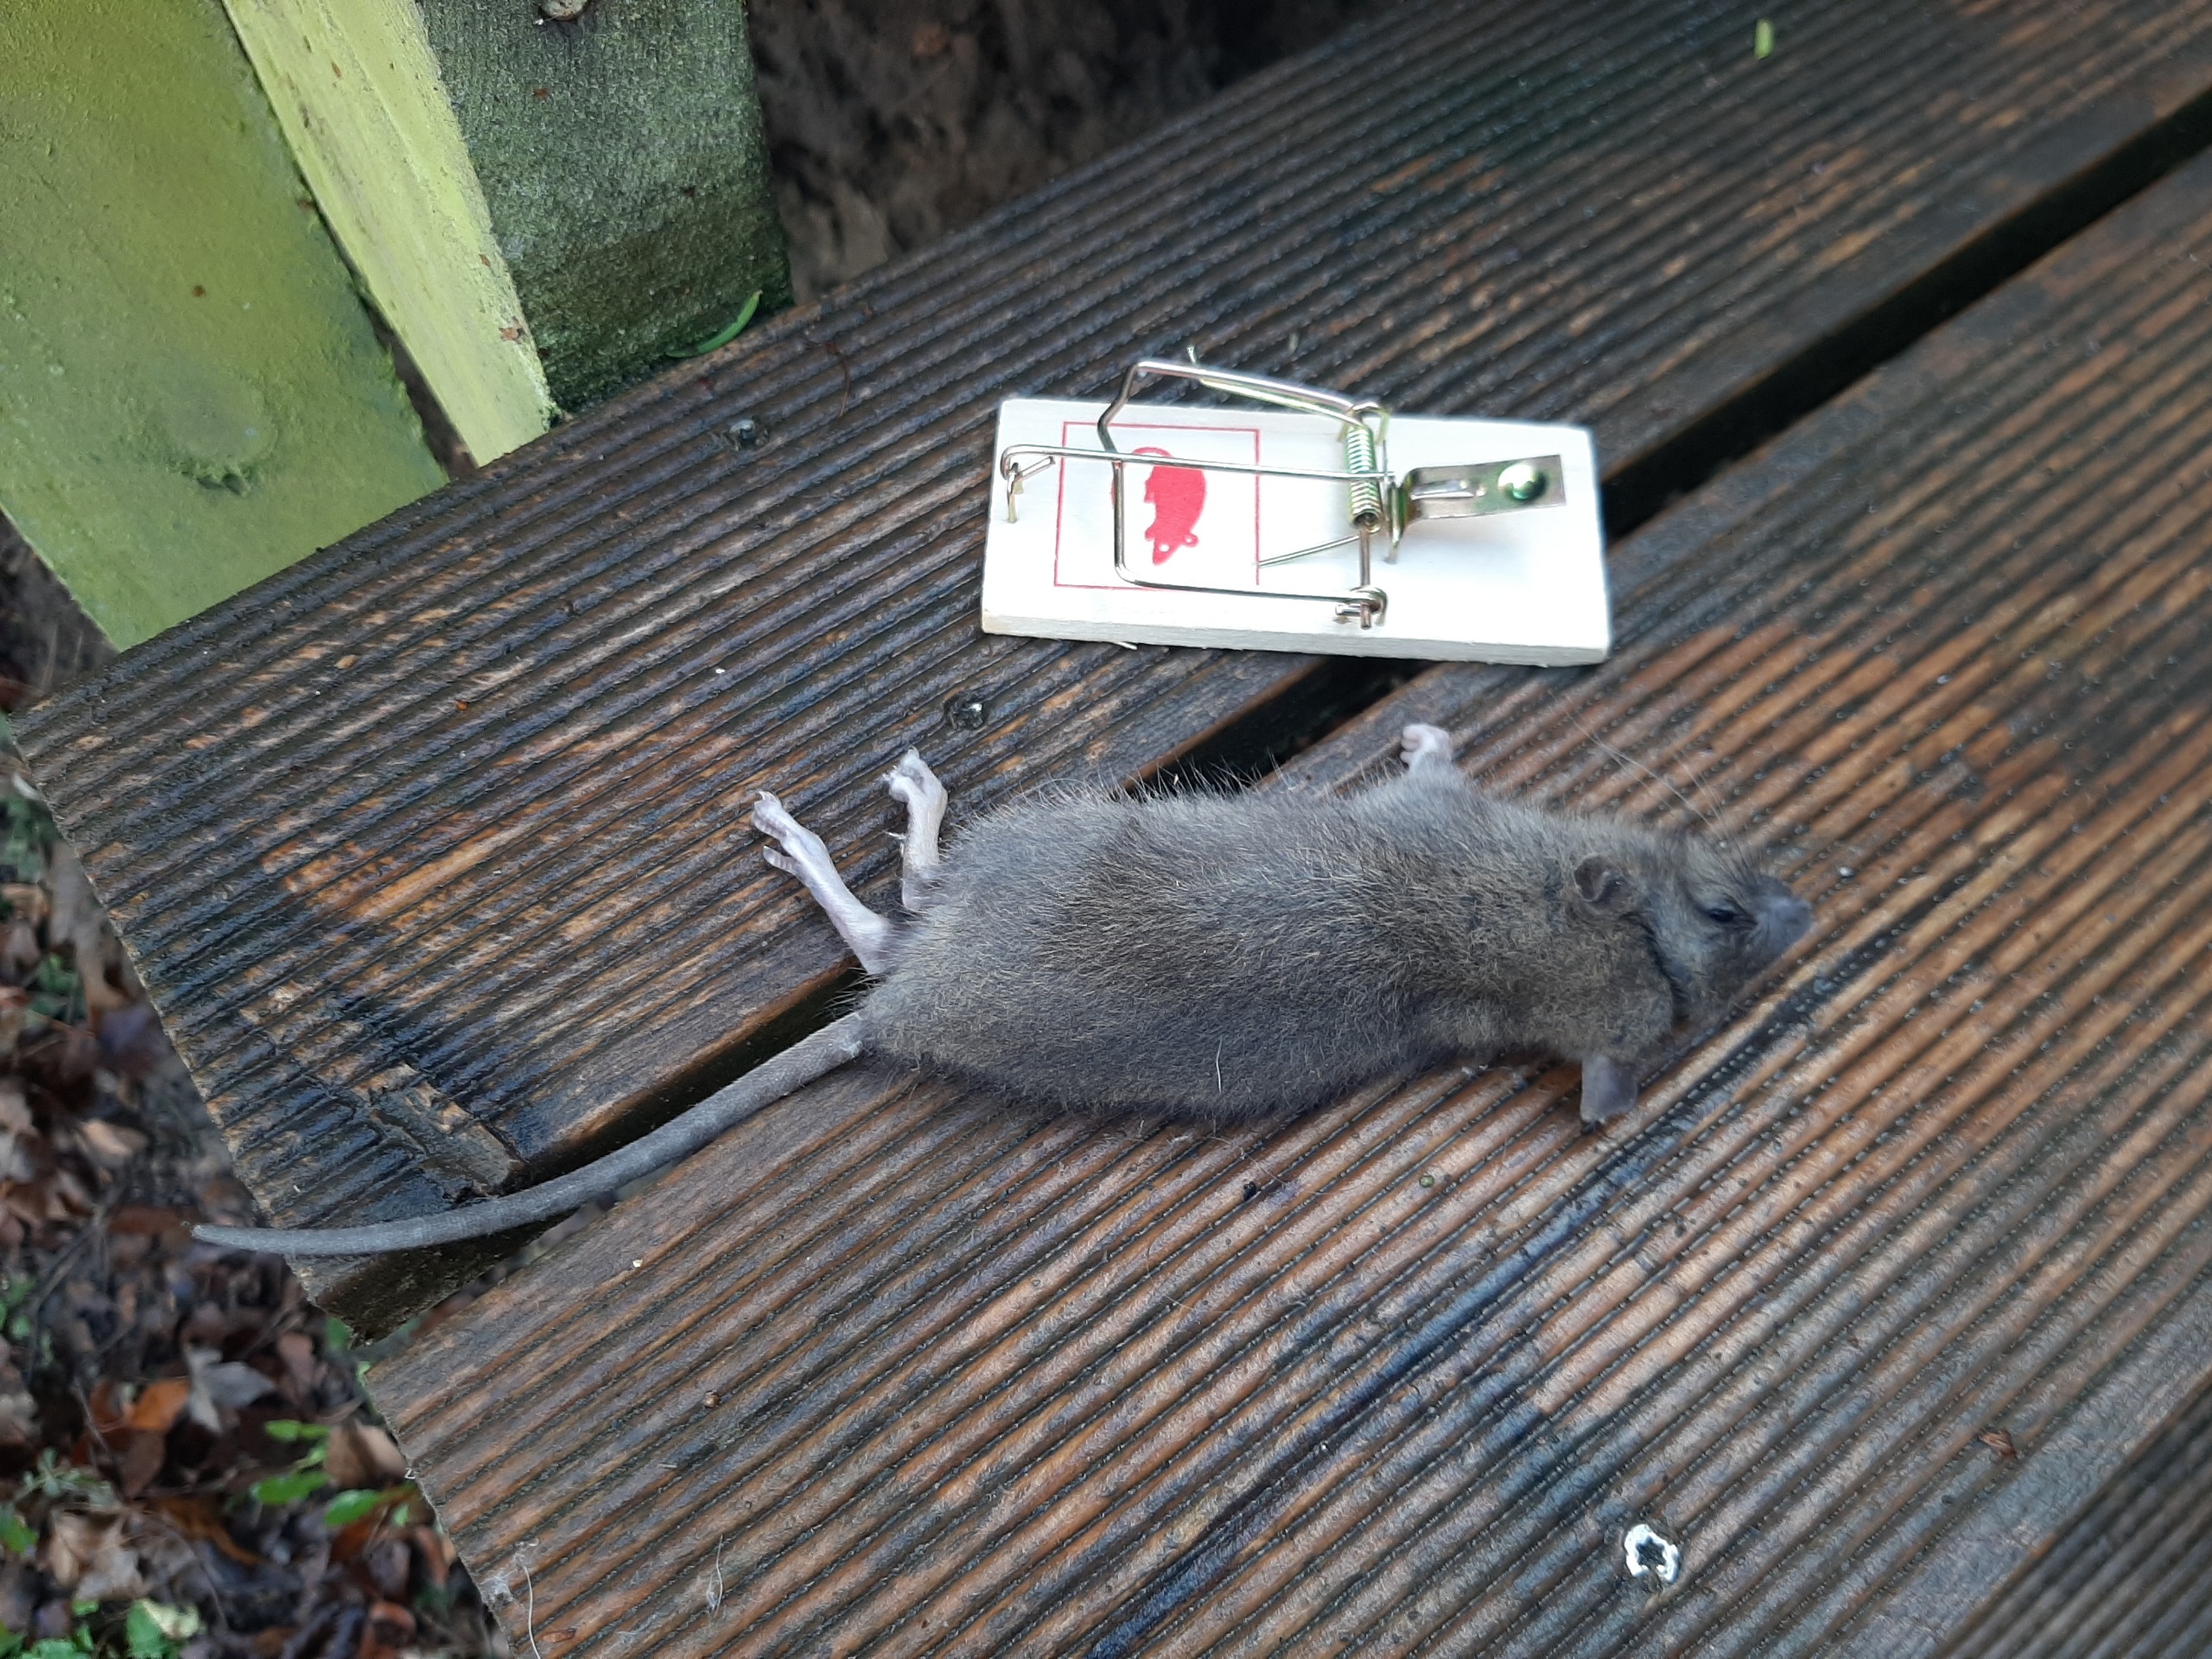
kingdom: Animalia
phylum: Chordata
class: Mammalia
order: Rodentia
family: Muridae
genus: Rattus
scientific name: Rattus norvegicus
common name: Brun rotte
